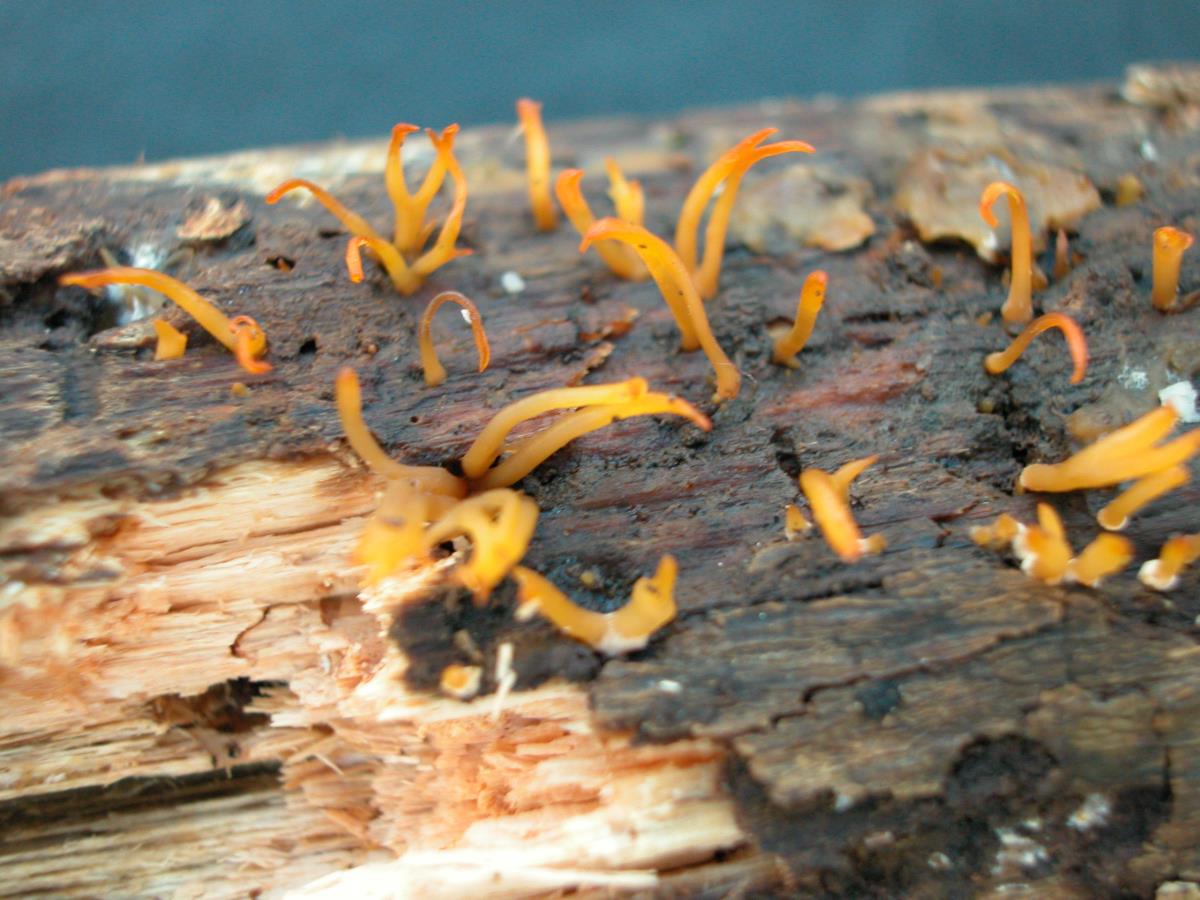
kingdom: Fungi
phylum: Basidiomycota
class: Dacrymycetes
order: Dacrymycetales
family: Dacrymycetaceae
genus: Calocera
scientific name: Calocera cornea
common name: Small stagshorn
